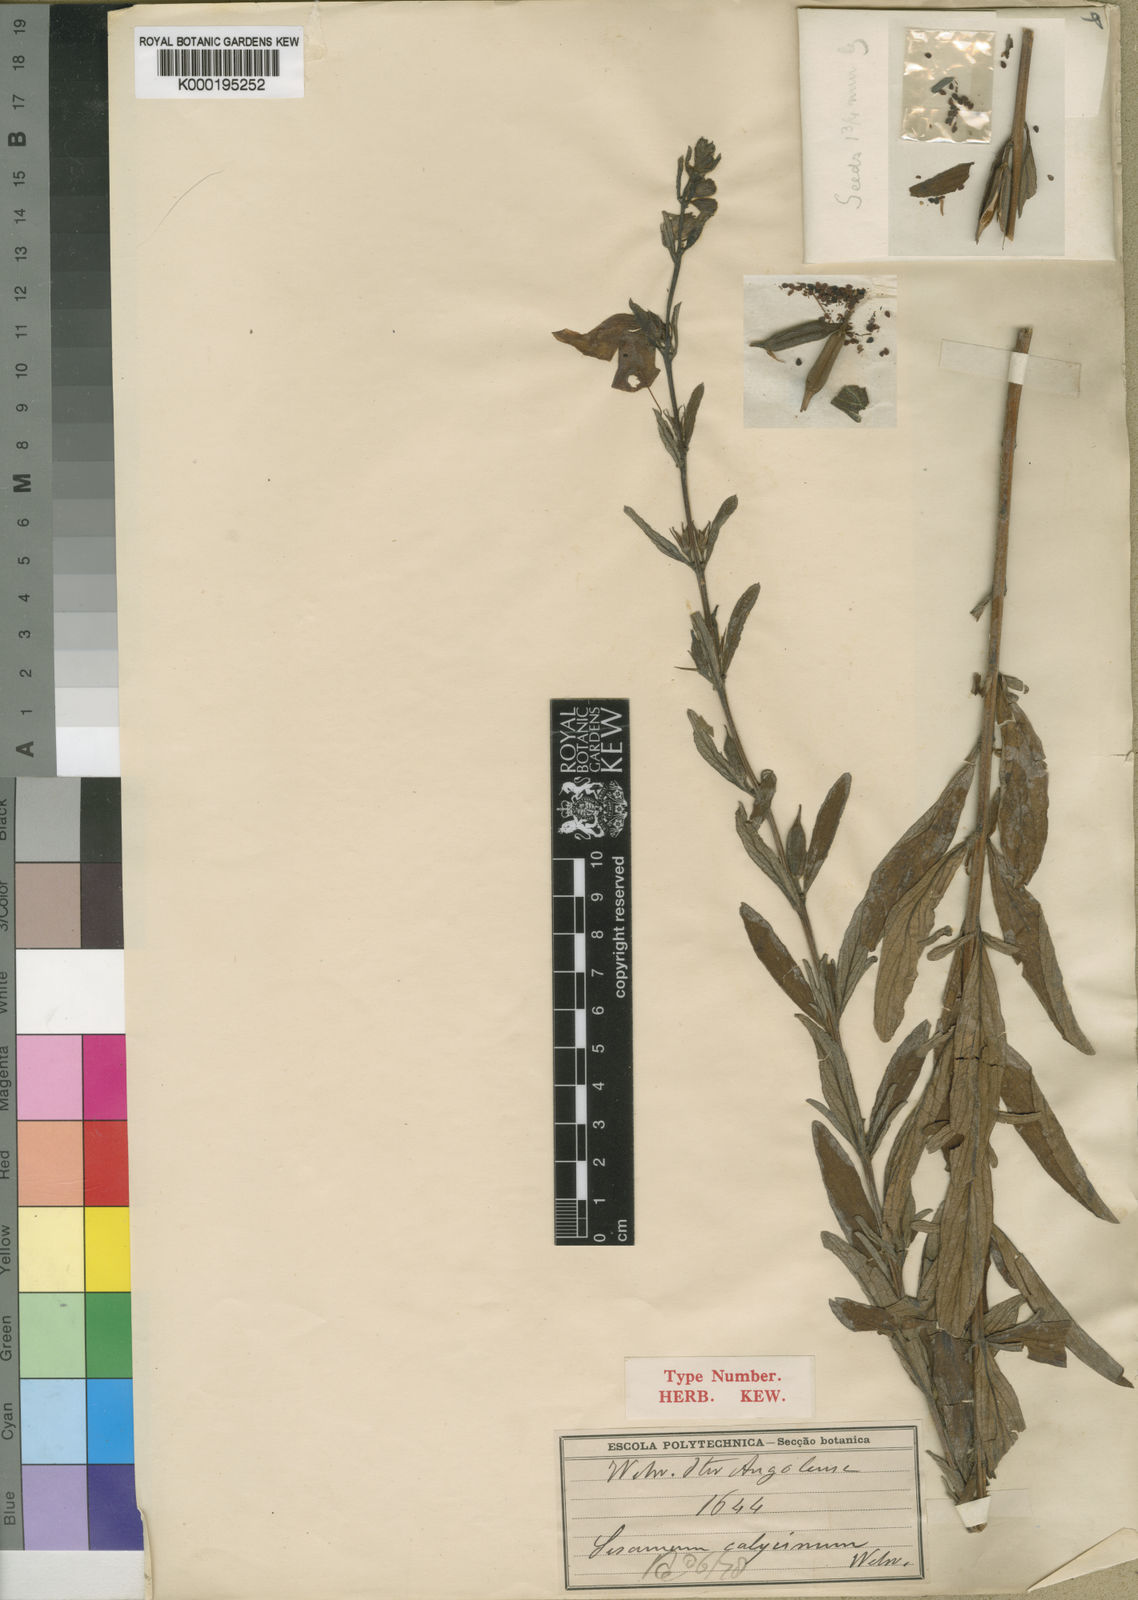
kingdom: Plantae
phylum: Tracheophyta
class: Magnoliopsida
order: Lamiales
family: Pedaliaceae
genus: Sesamum
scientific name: Sesamum calycinum
